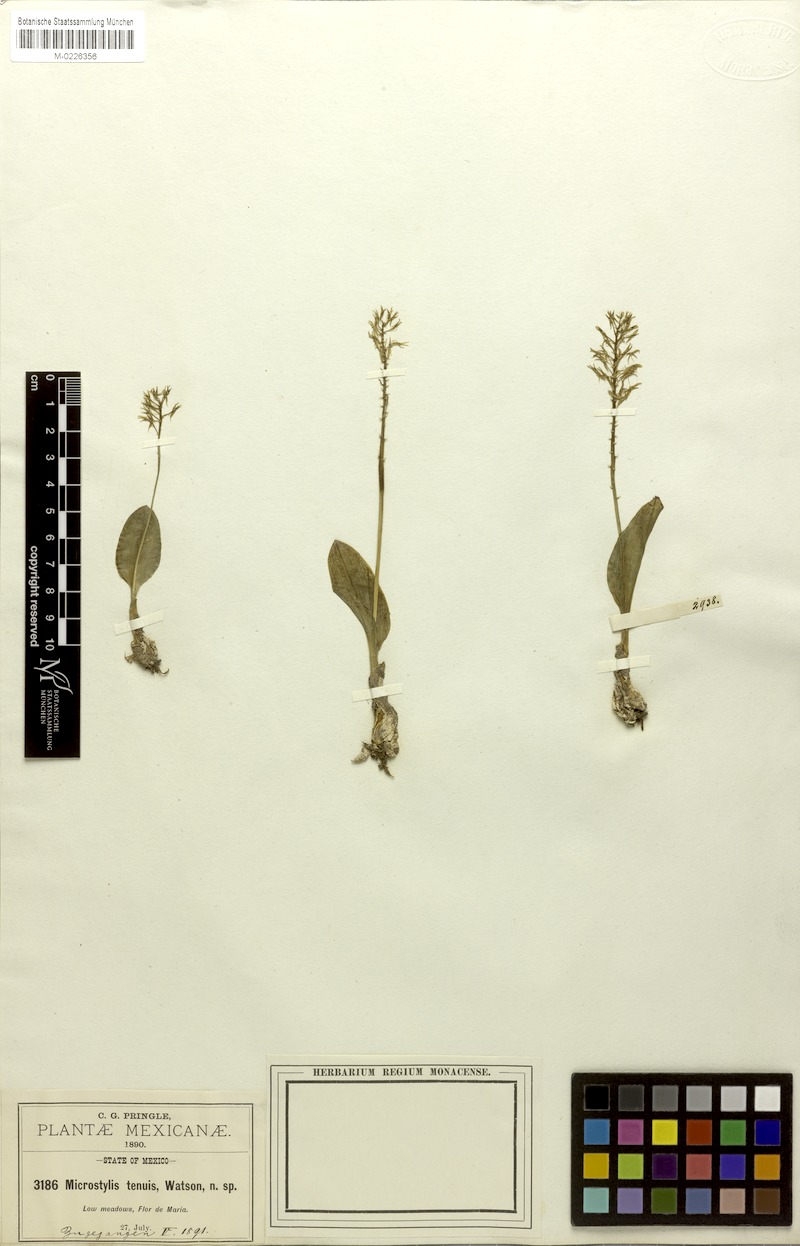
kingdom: Plantae
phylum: Tracheophyta
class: Liliopsida
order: Asparagales
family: Orchidaceae
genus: Malaxis
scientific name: Malaxis abieticola
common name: Arizona adder's-mouth orchid
